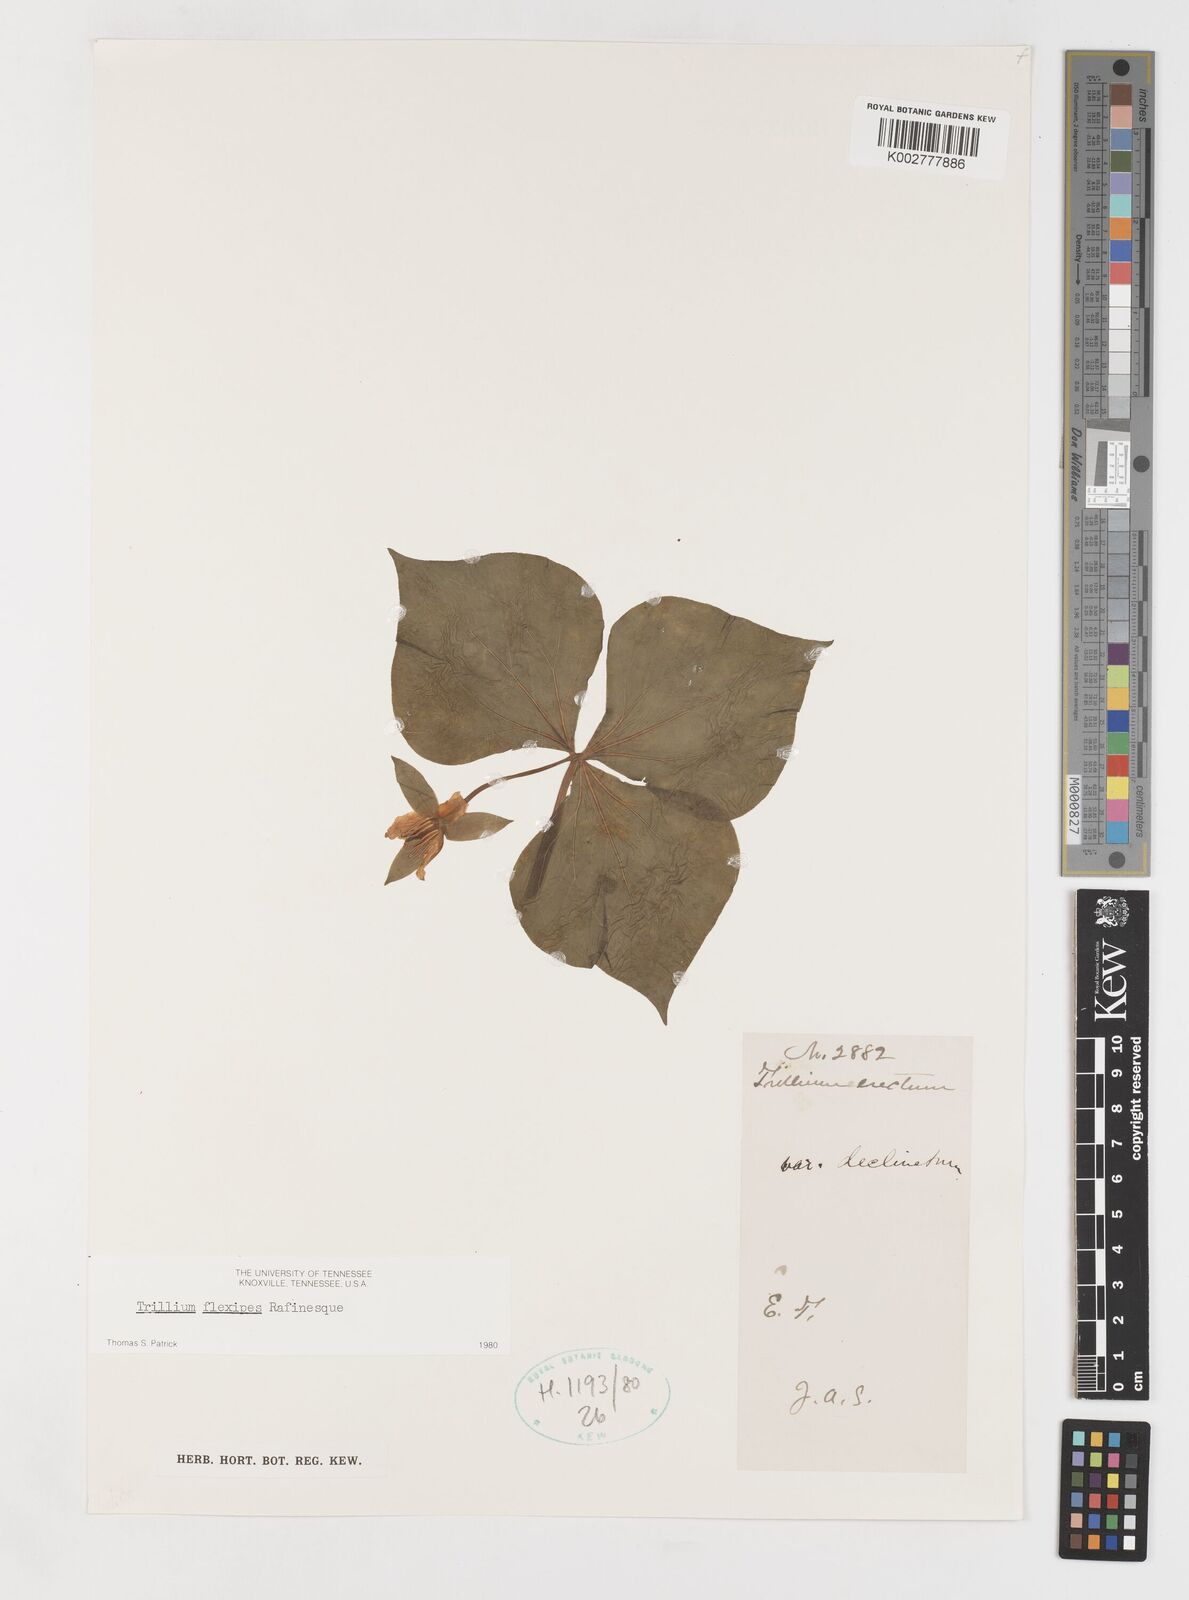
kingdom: Plantae
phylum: Tracheophyta
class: Liliopsida
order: Liliales
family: Melanthiaceae
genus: Trillium
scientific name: Trillium flexipes
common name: Drooping trillium
